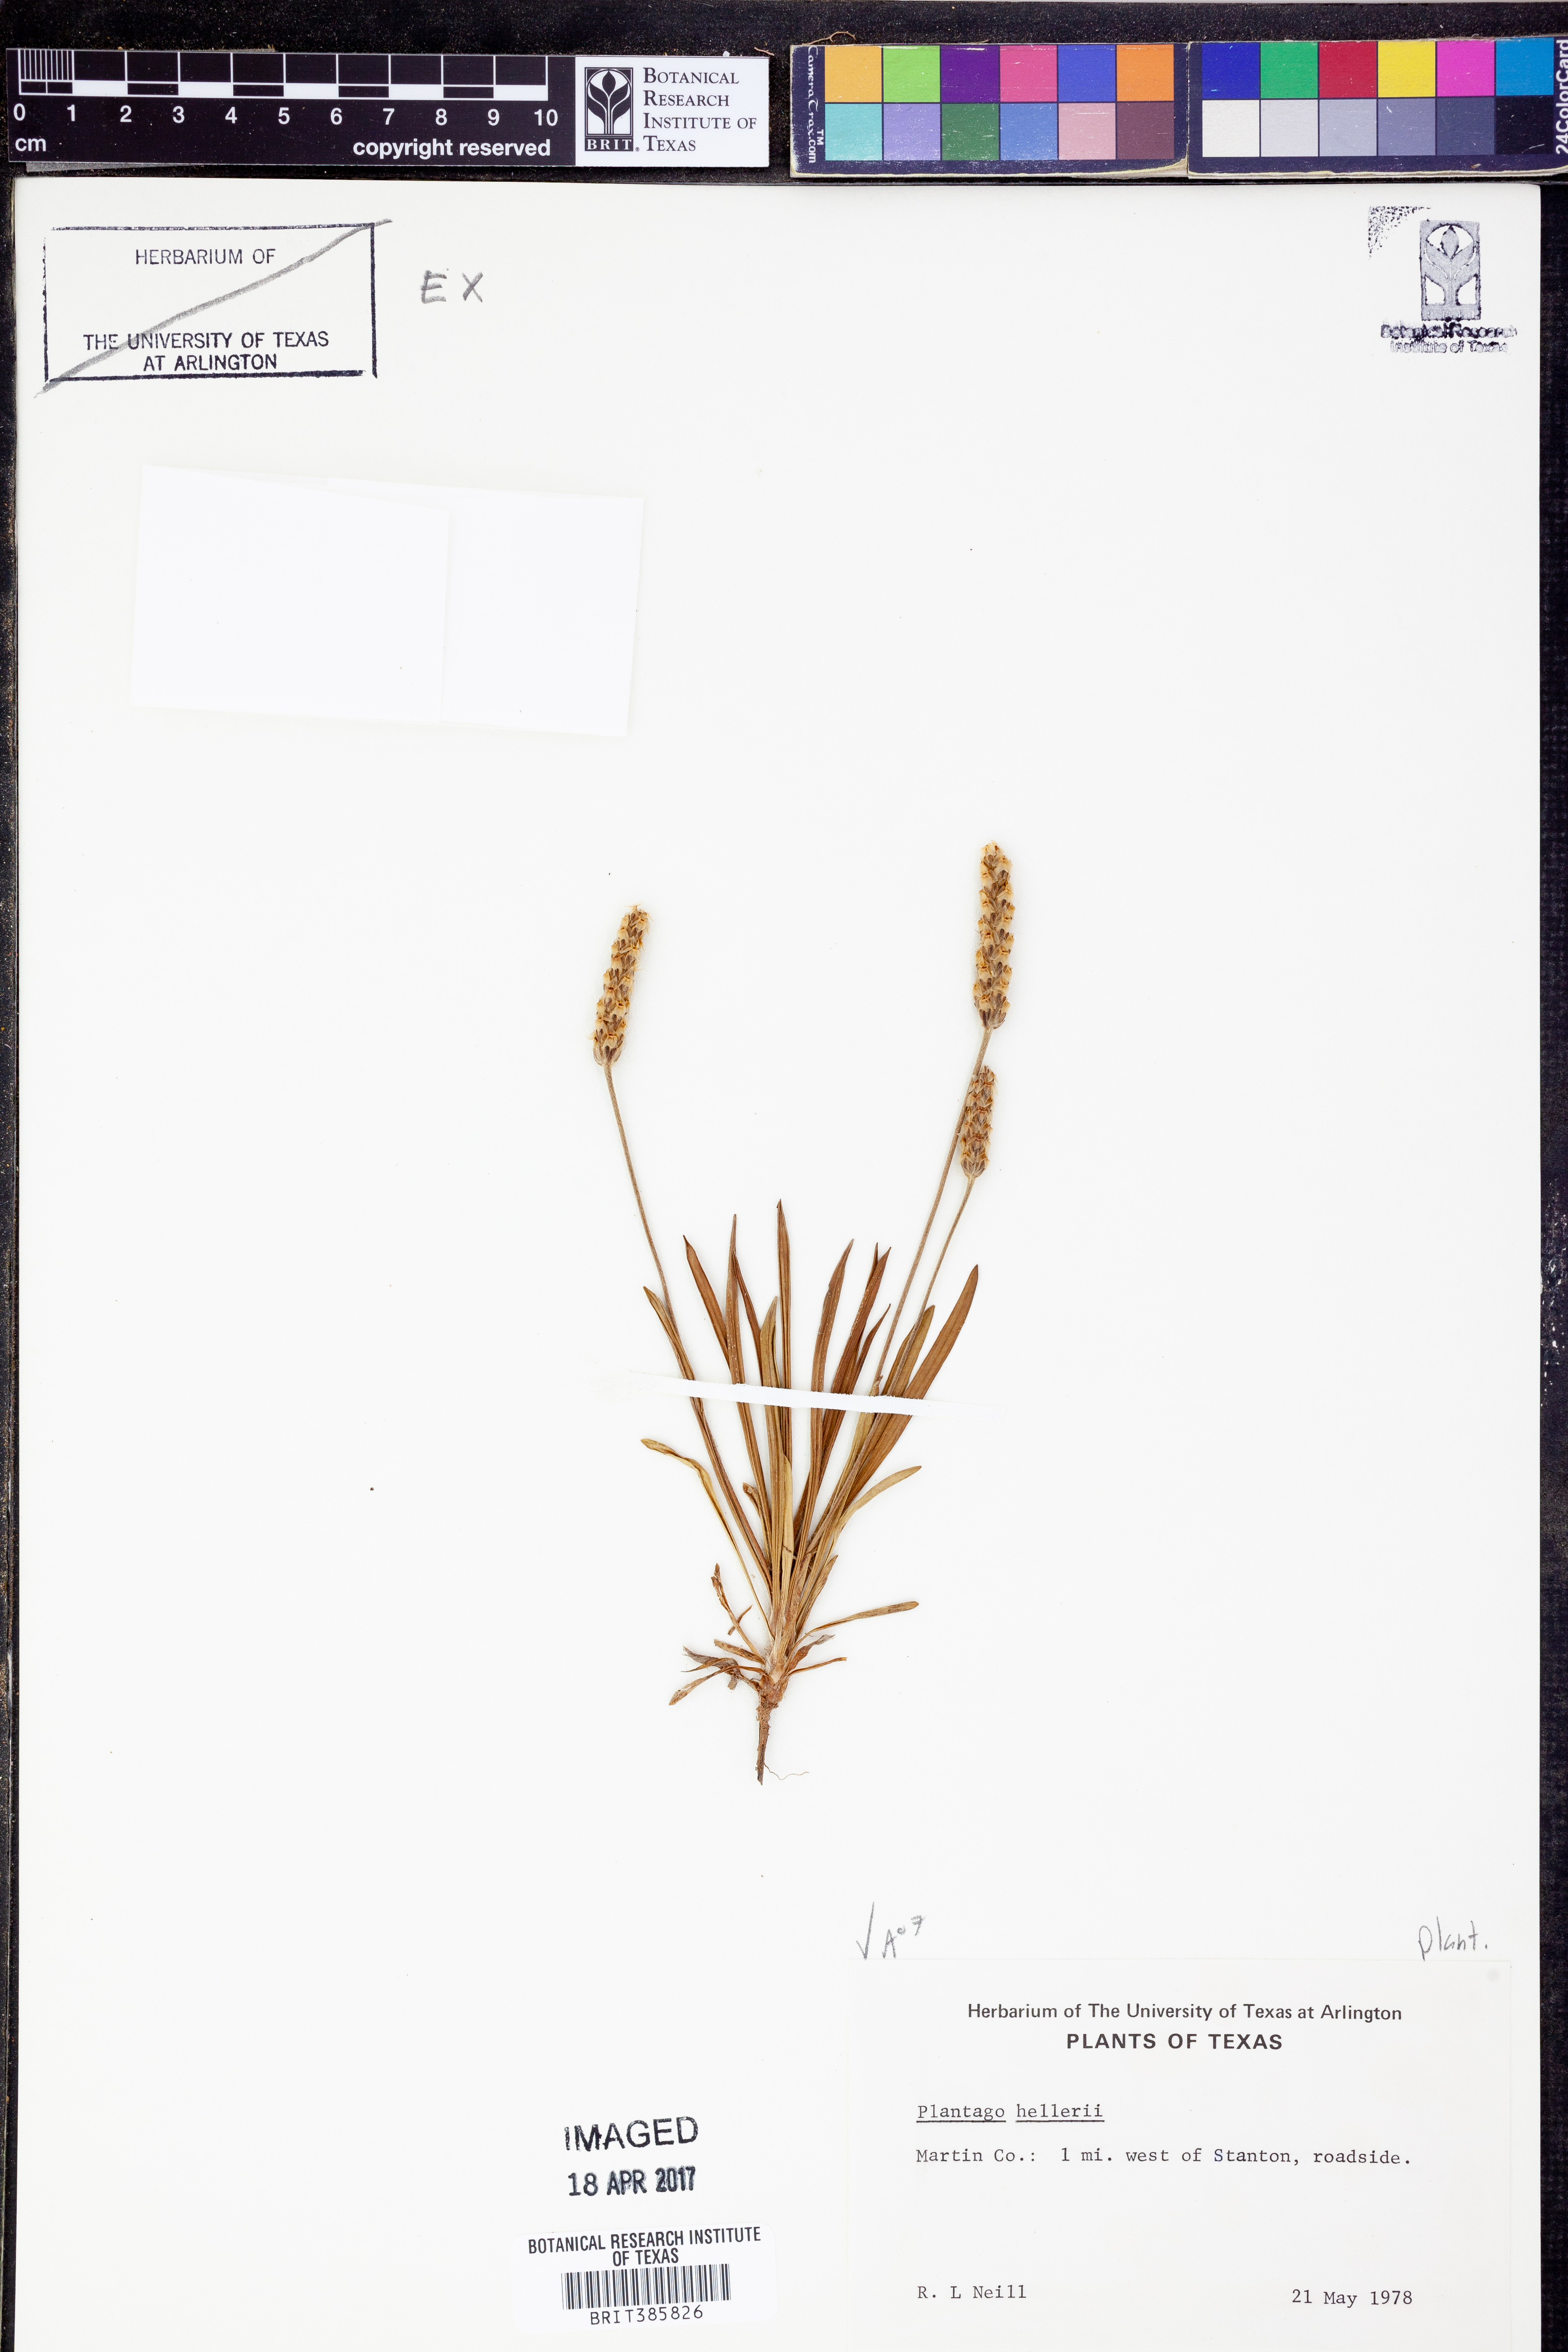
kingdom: Plantae
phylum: Tracheophyta
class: Magnoliopsida
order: Lamiales
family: Plantaginaceae
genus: Plantago
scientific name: Plantago helleri
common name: Heller's plantain
